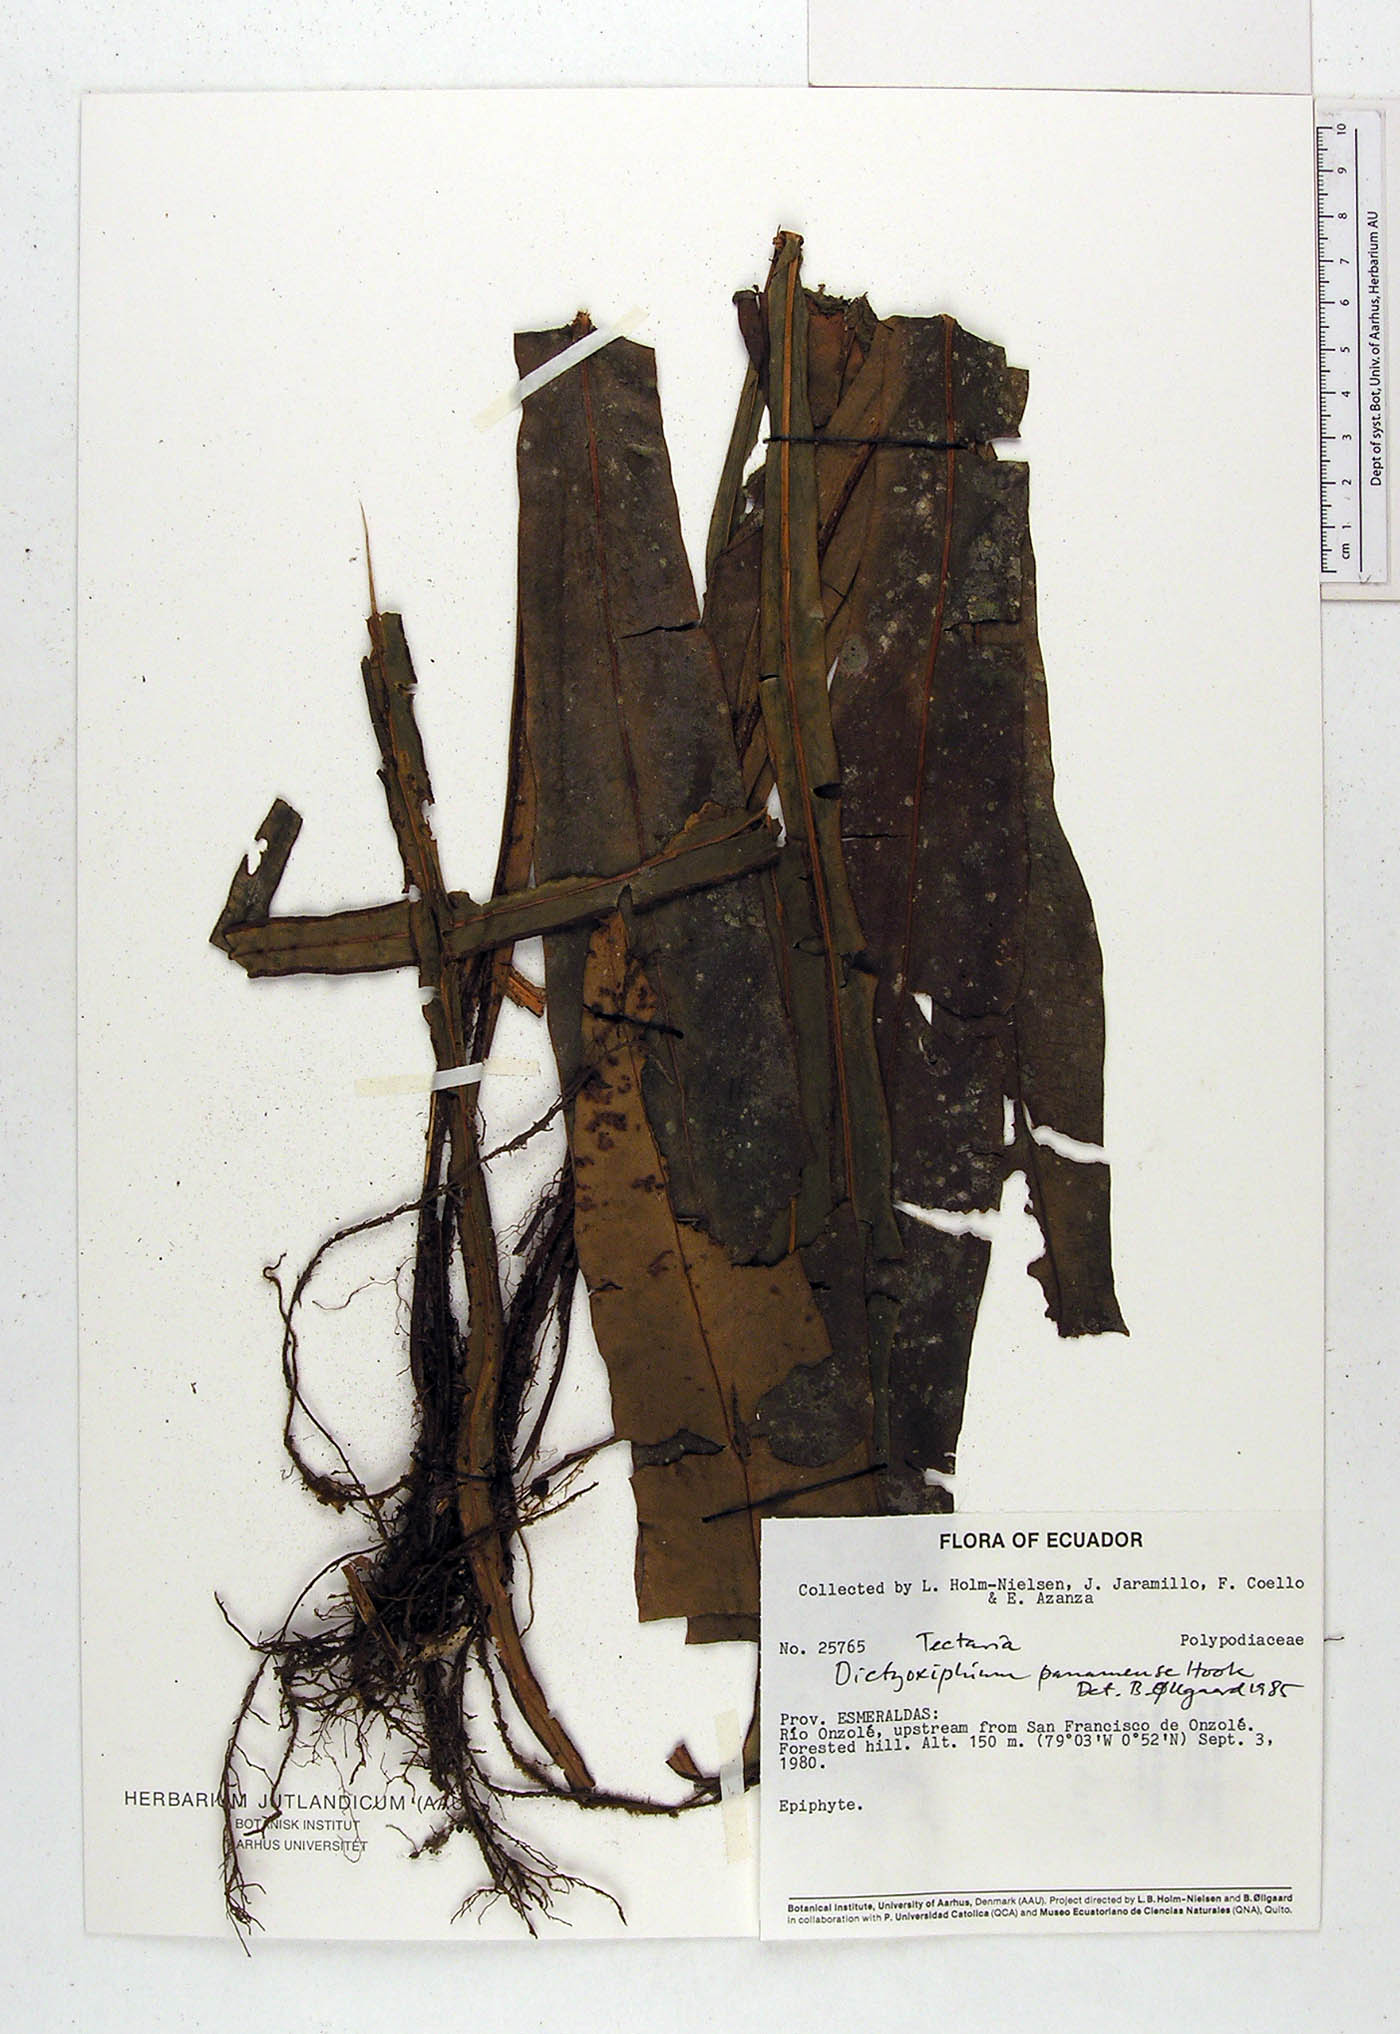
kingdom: Plantae
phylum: Tracheophyta
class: Polypodiopsida
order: Polypodiales
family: Tectariaceae
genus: Tectaria
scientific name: Tectaria panamensis
